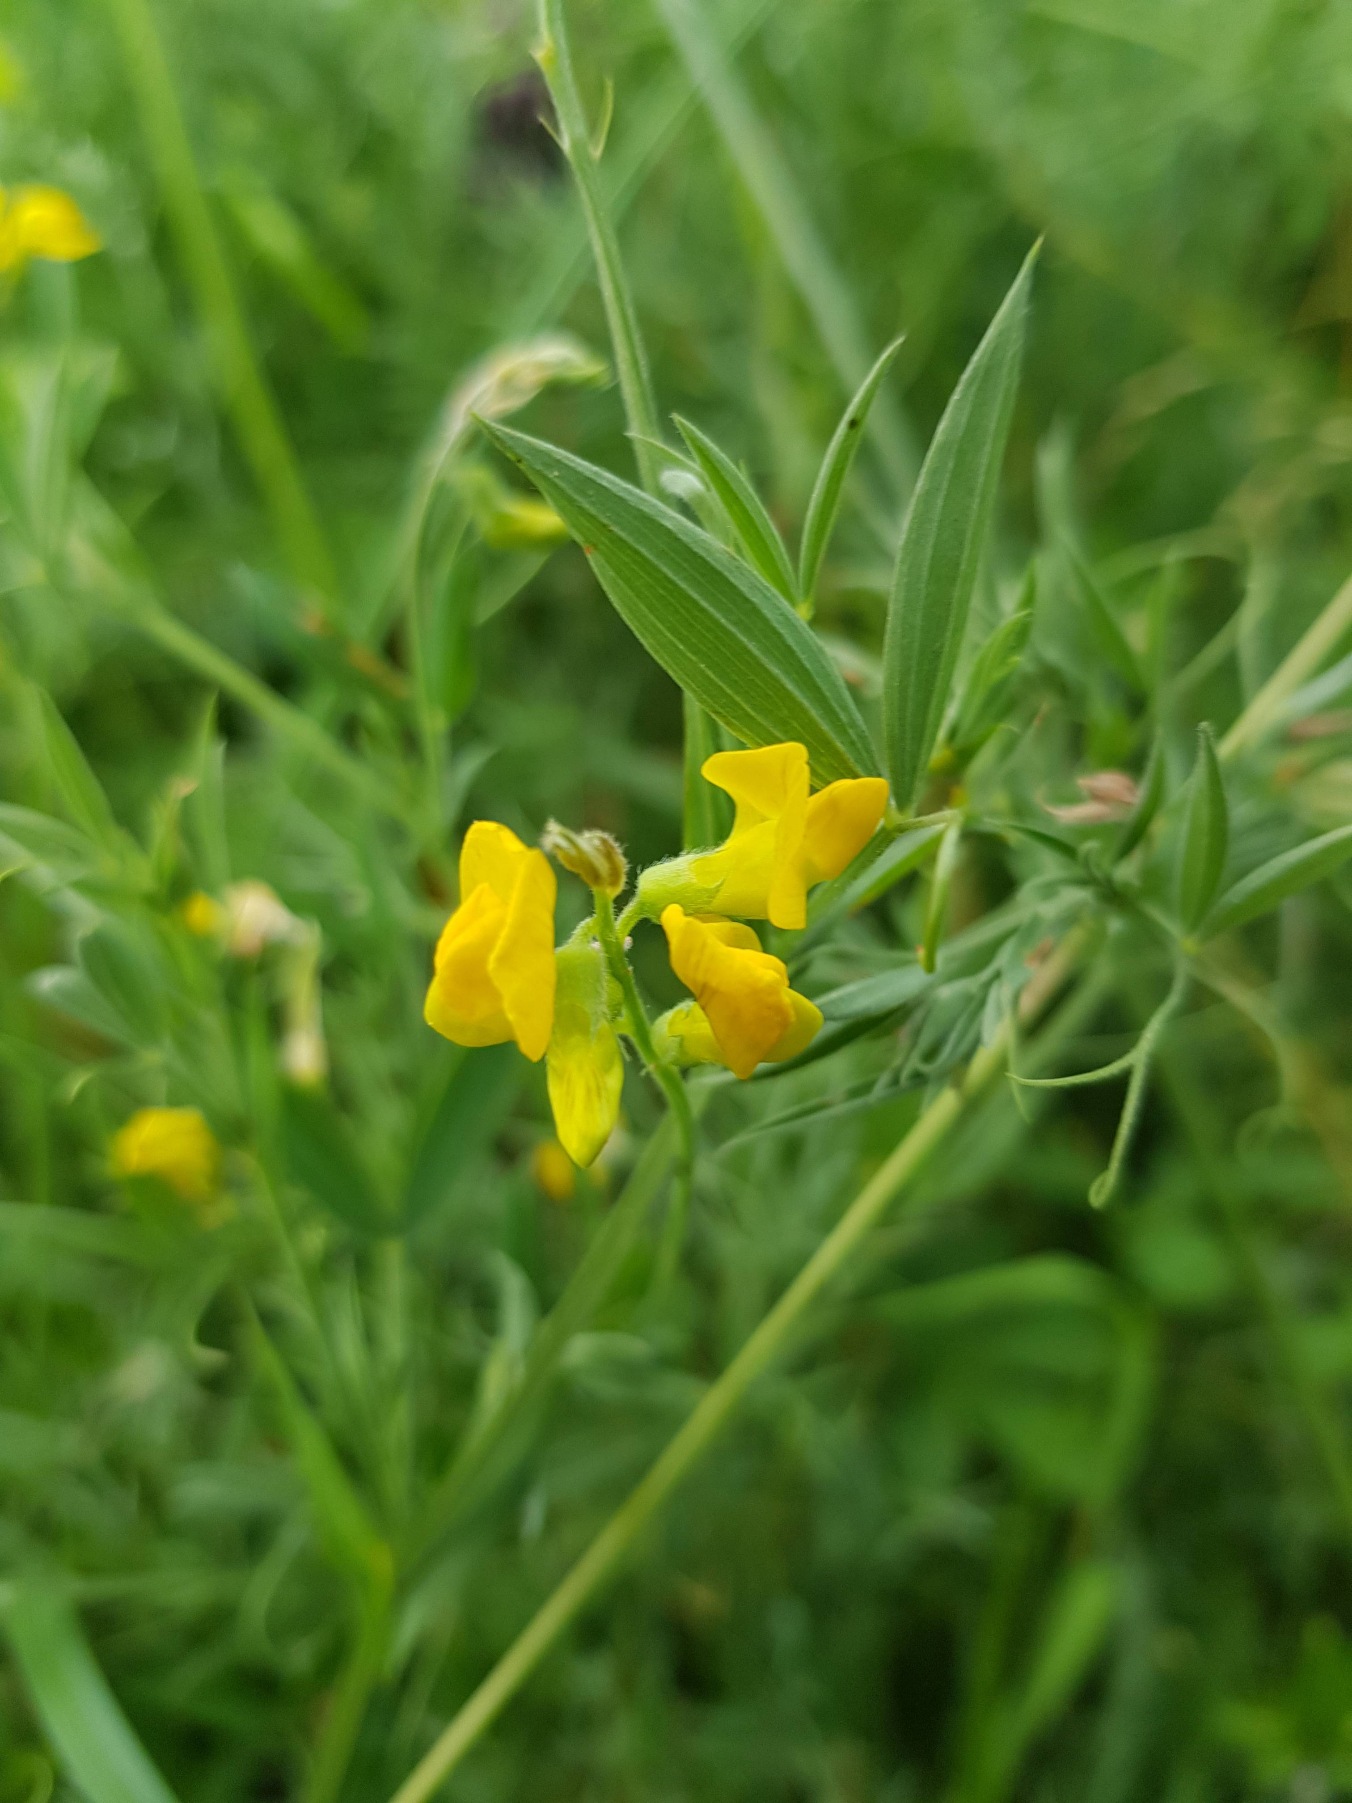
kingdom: Plantae
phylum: Tracheophyta
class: Magnoliopsida
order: Fabales
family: Fabaceae
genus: Lathyrus
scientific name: Lathyrus pratensis
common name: Gul fladbælg
